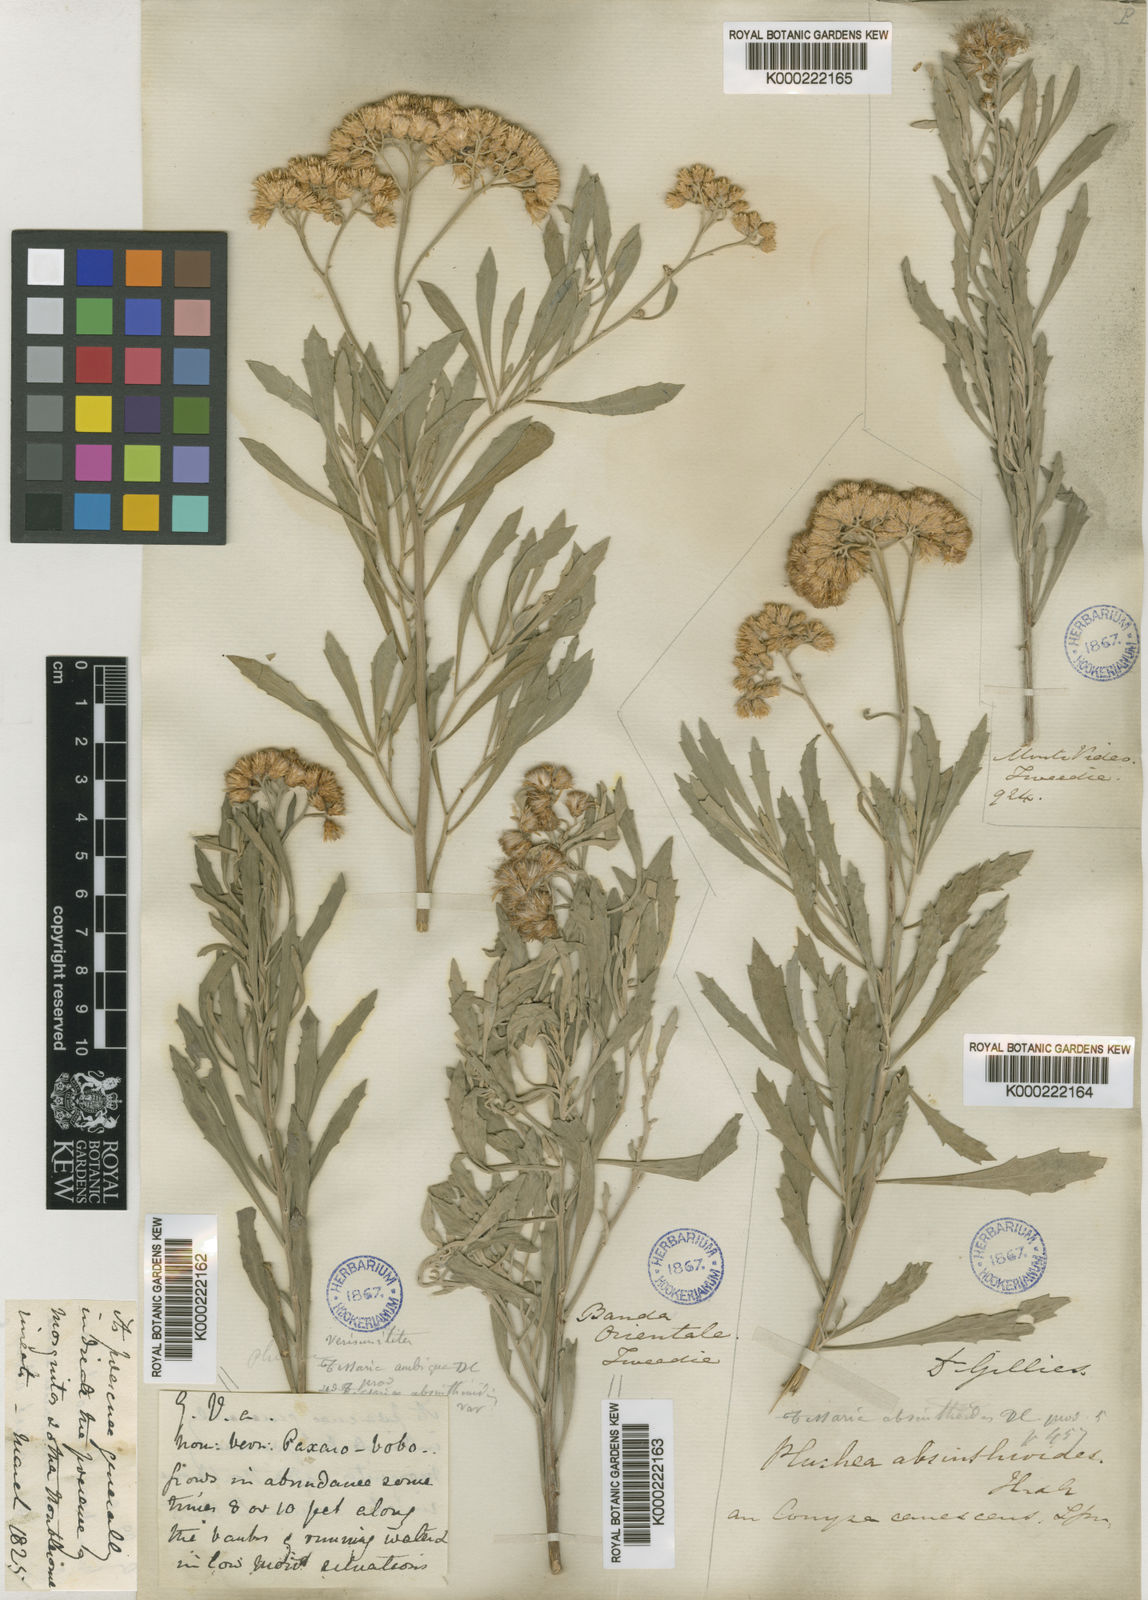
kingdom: Plantae
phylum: Tracheophyta
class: Magnoliopsida
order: Asterales
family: Asteraceae
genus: Tessaria
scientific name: Tessaria absinthioides
